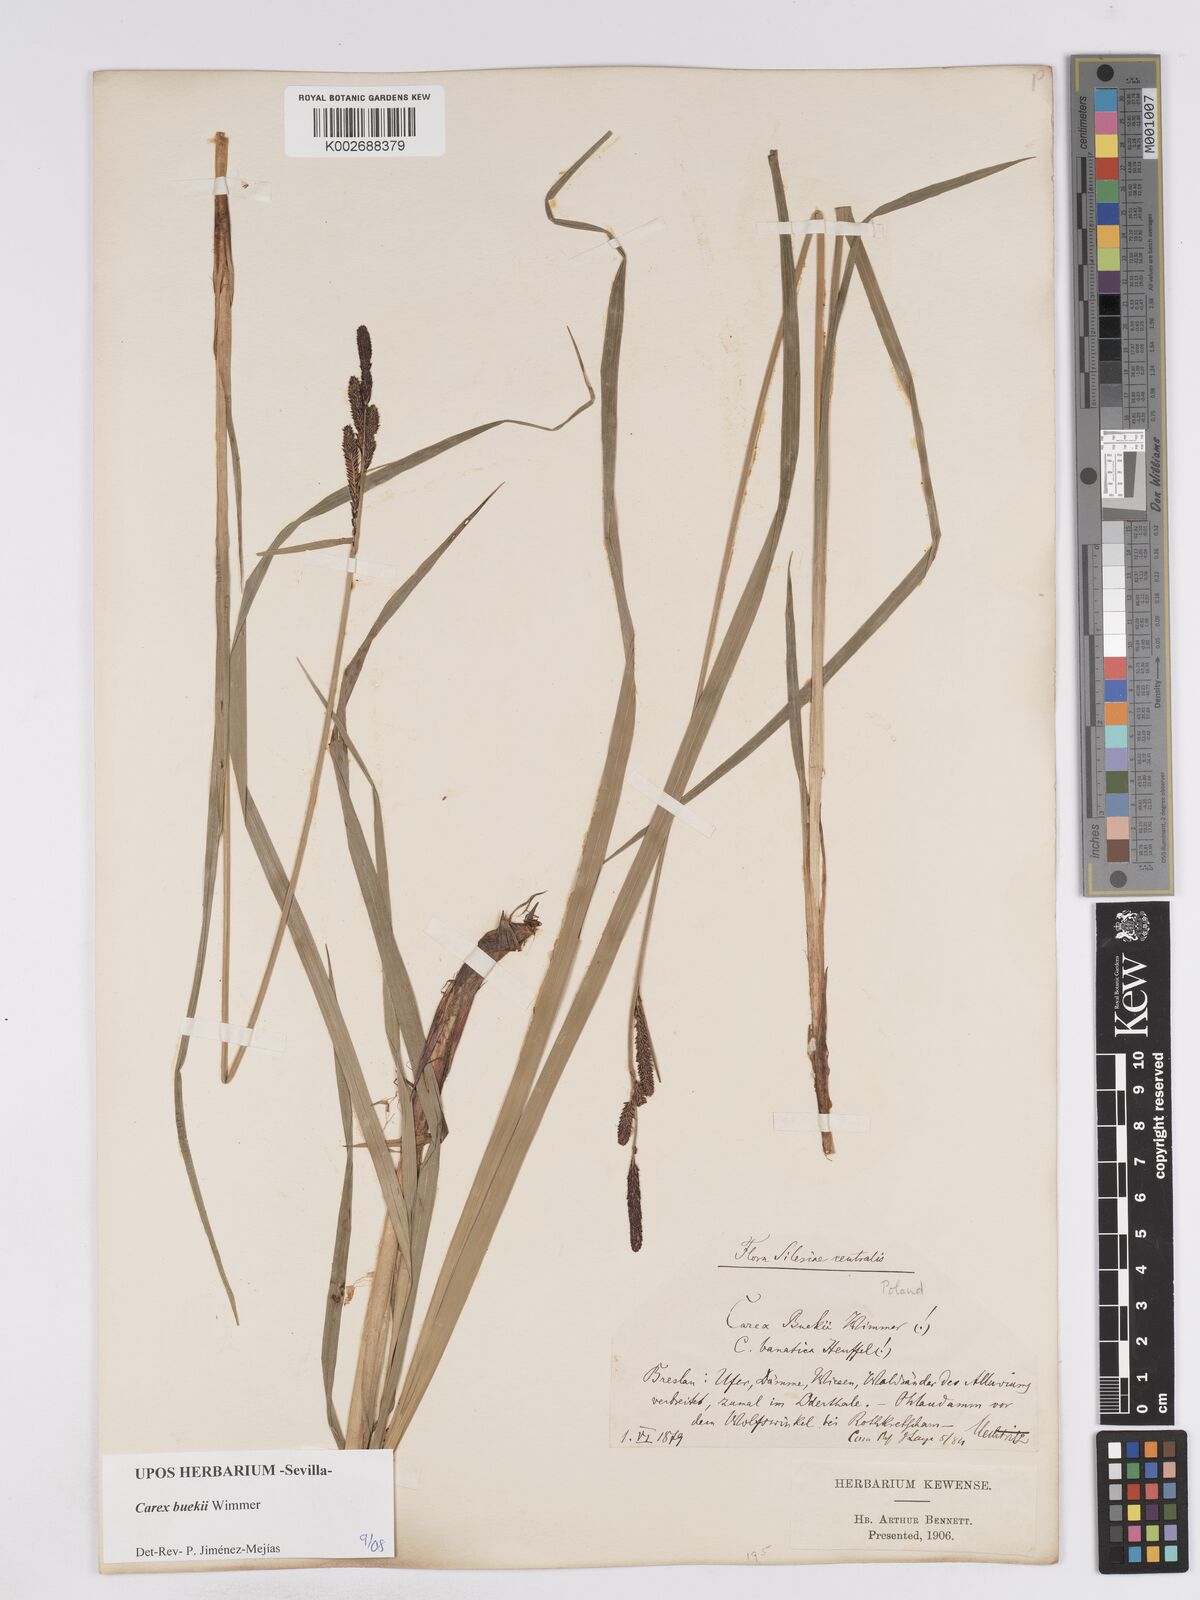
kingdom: Plantae
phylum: Tracheophyta
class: Liliopsida
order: Poales
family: Cyperaceae
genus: Carex
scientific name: Carex buekii
